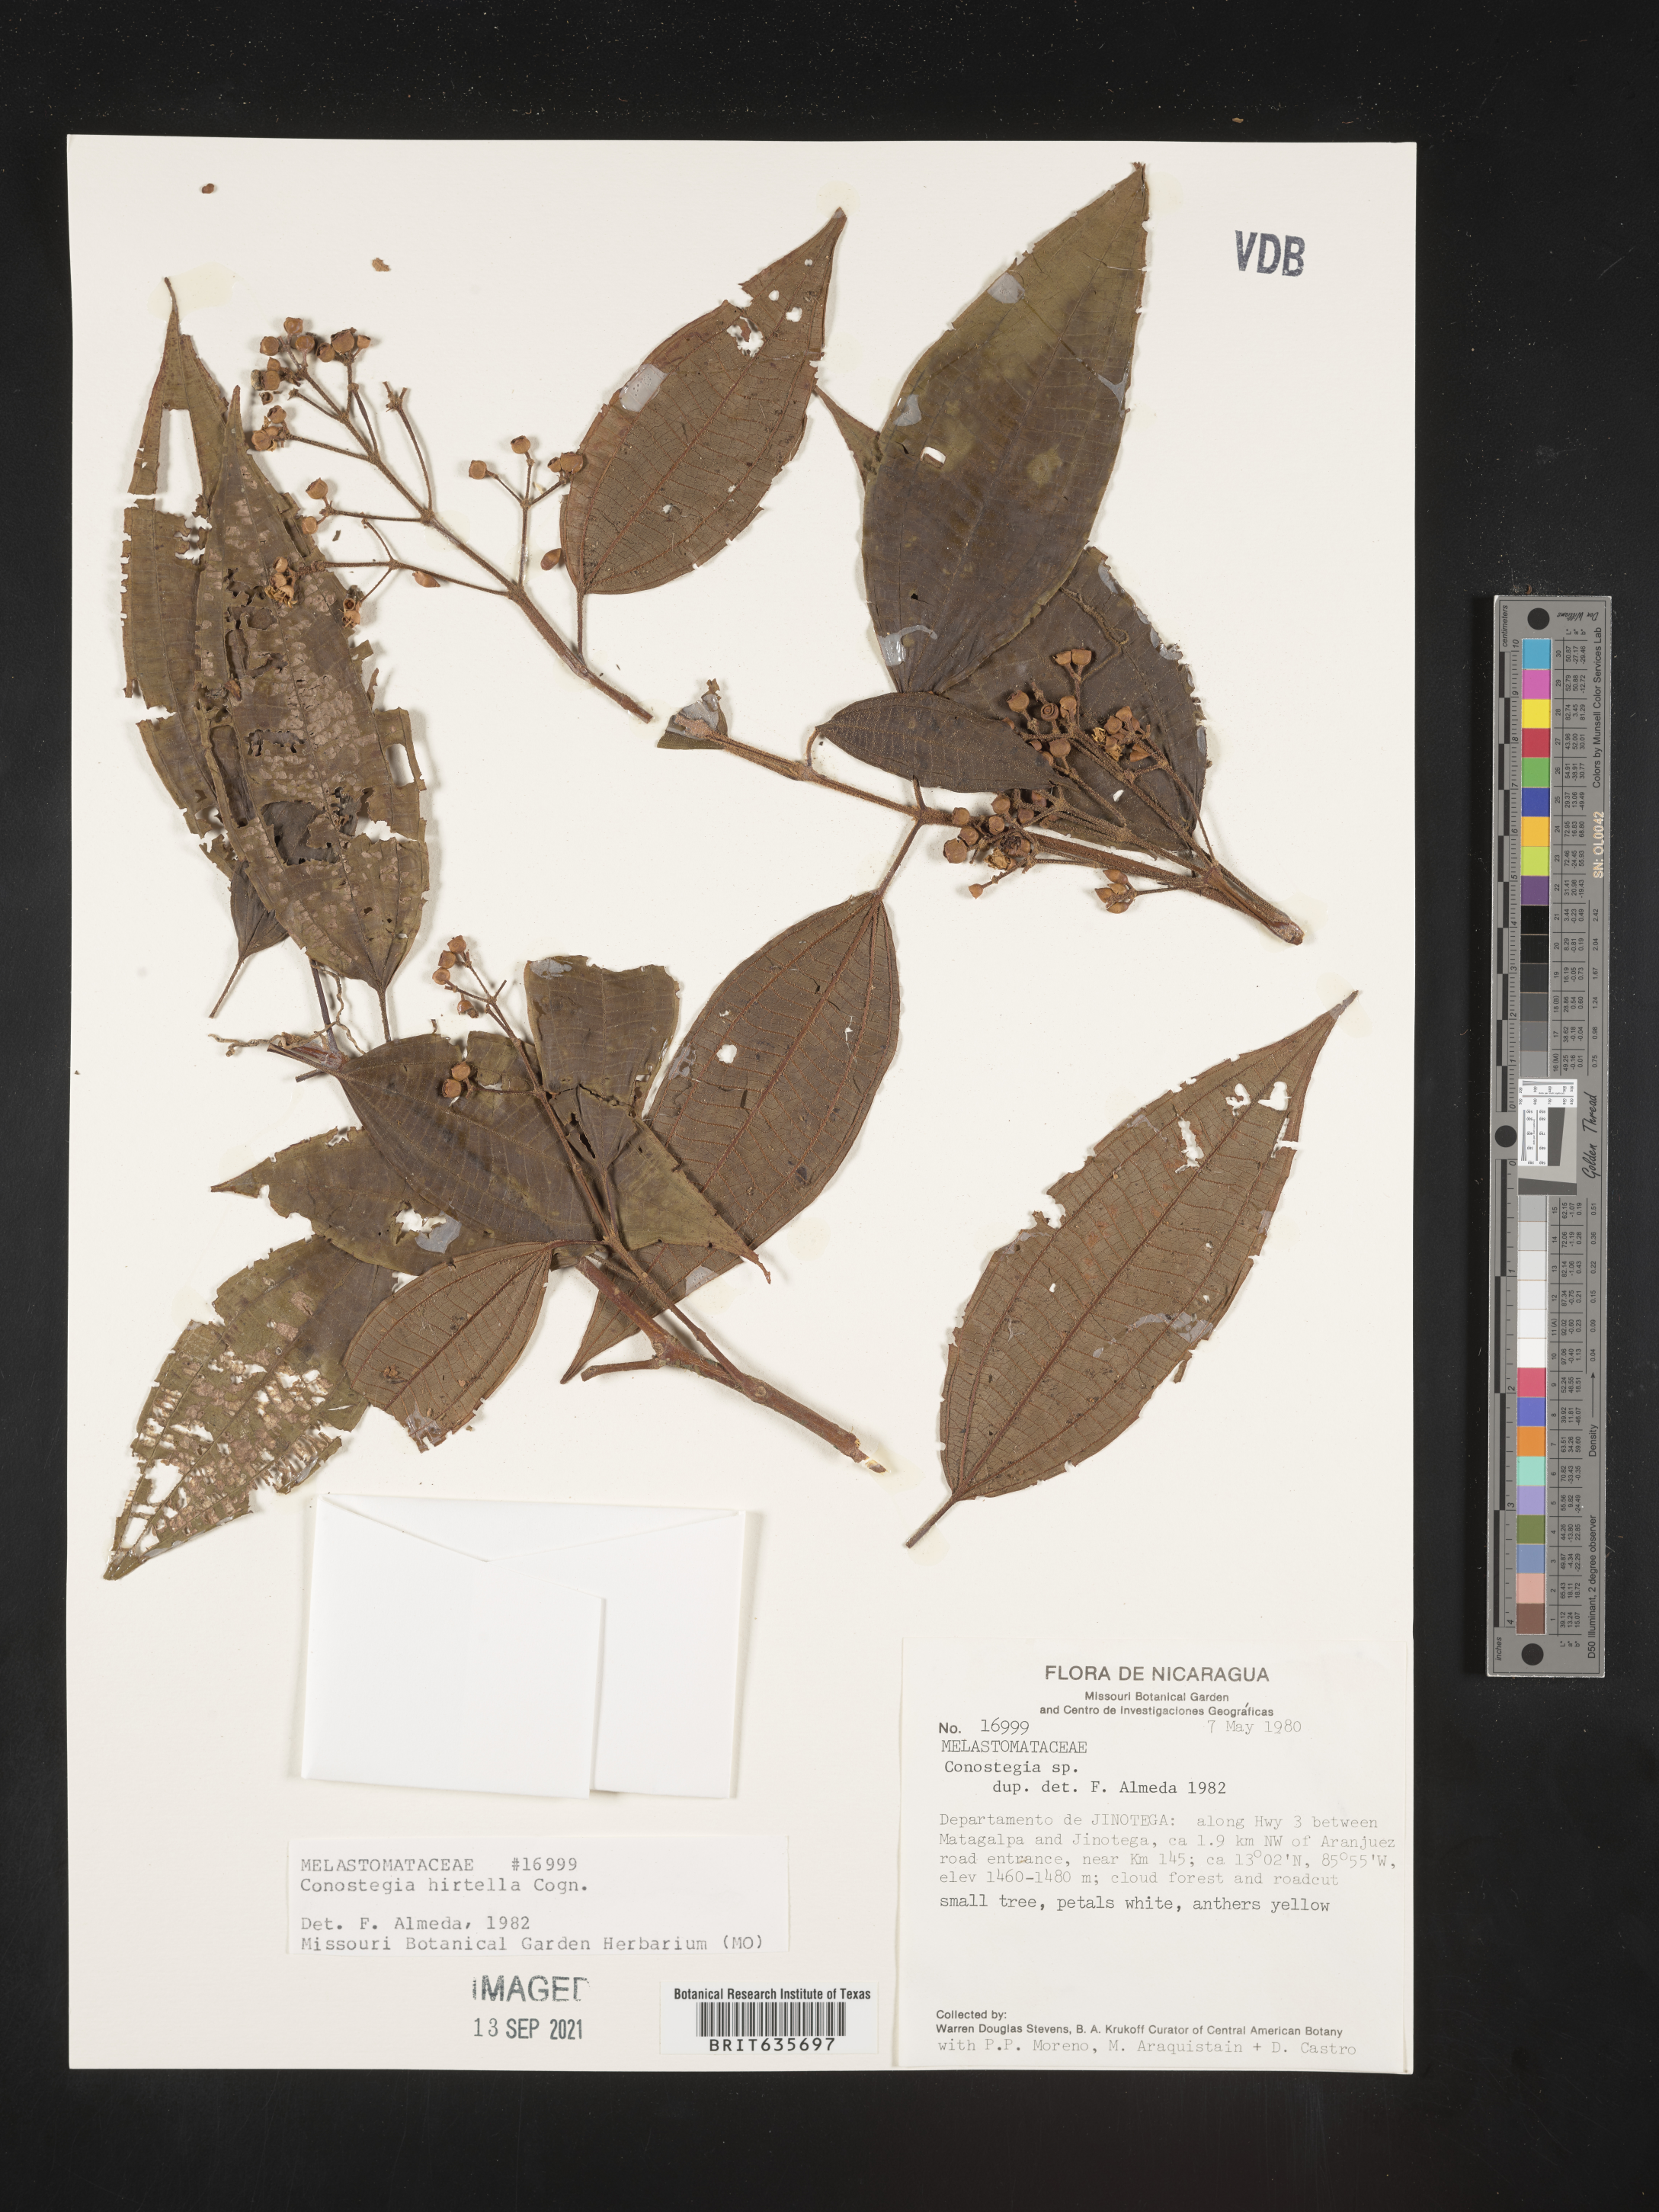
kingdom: Plantae
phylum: Tracheophyta
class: Magnoliopsida
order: Myrtales
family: Melastomataceae
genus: Miconia
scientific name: Miconia
